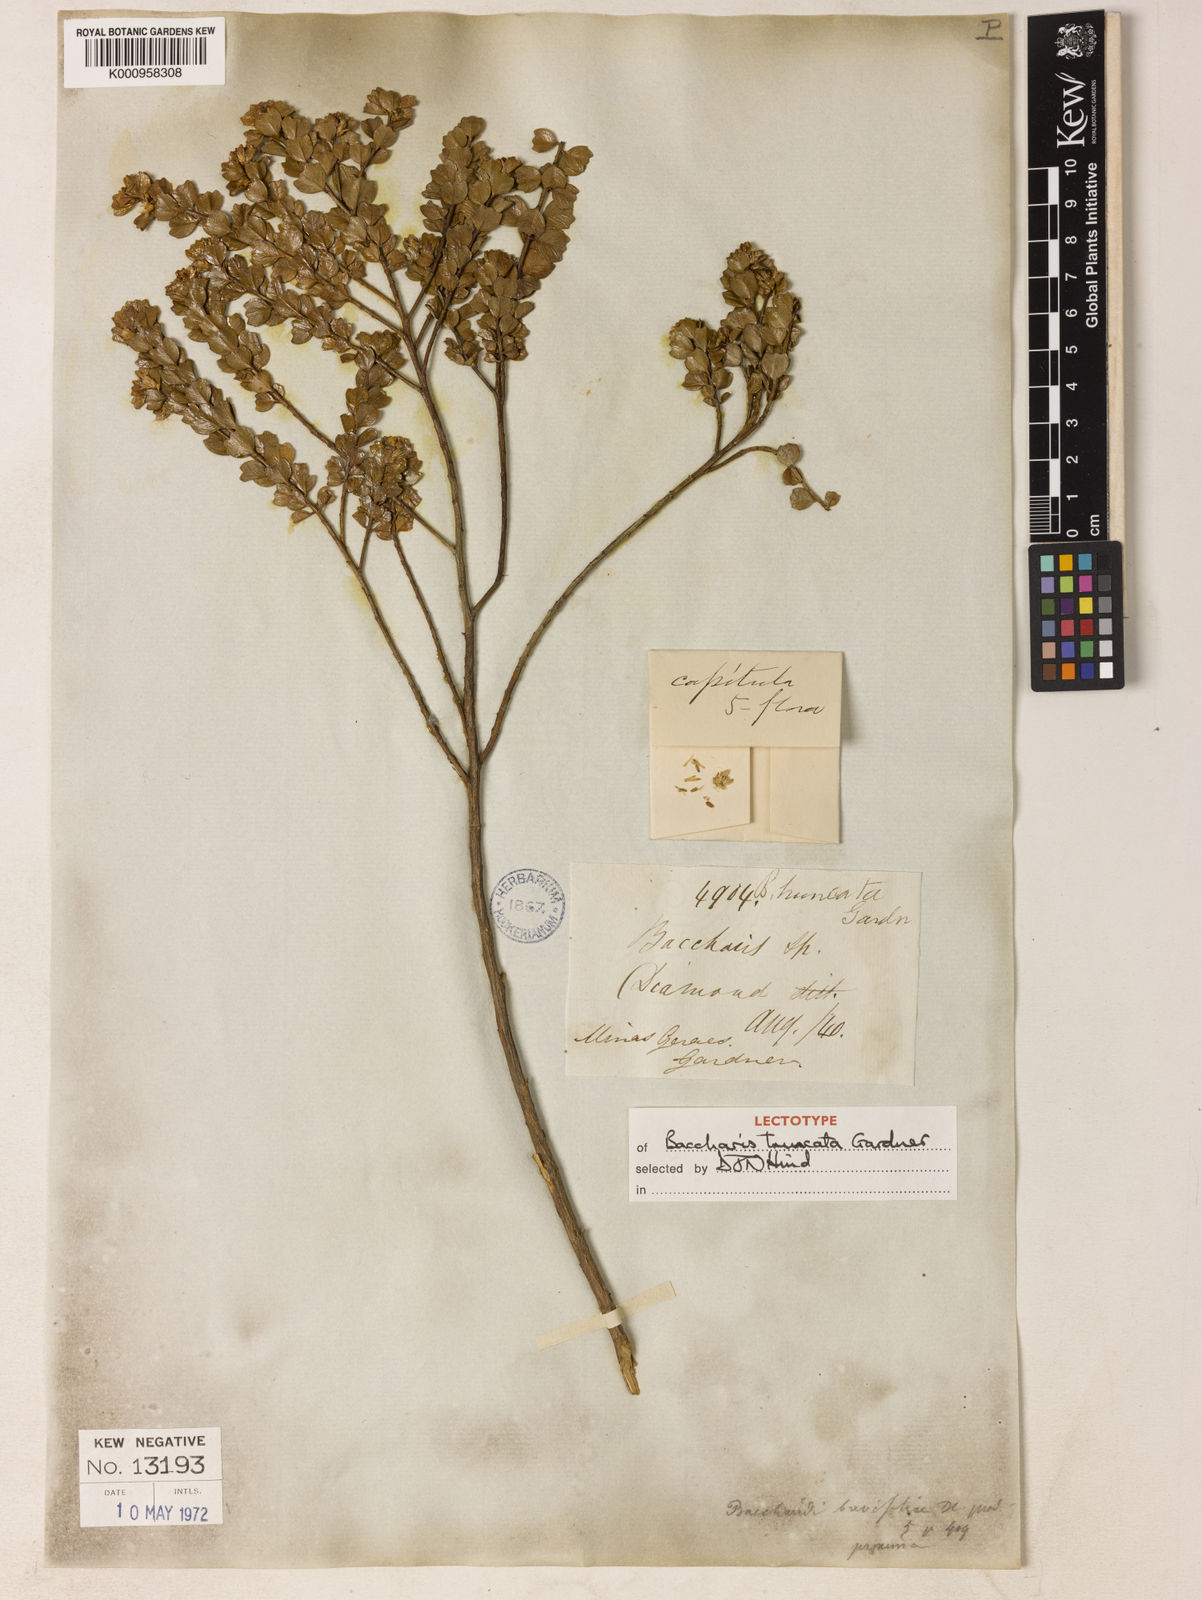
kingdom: Plantae
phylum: Tracheophyta
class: Magnoliopsida
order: Asterales
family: Asteraceae
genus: Baccharis
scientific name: Baccharis truncata
